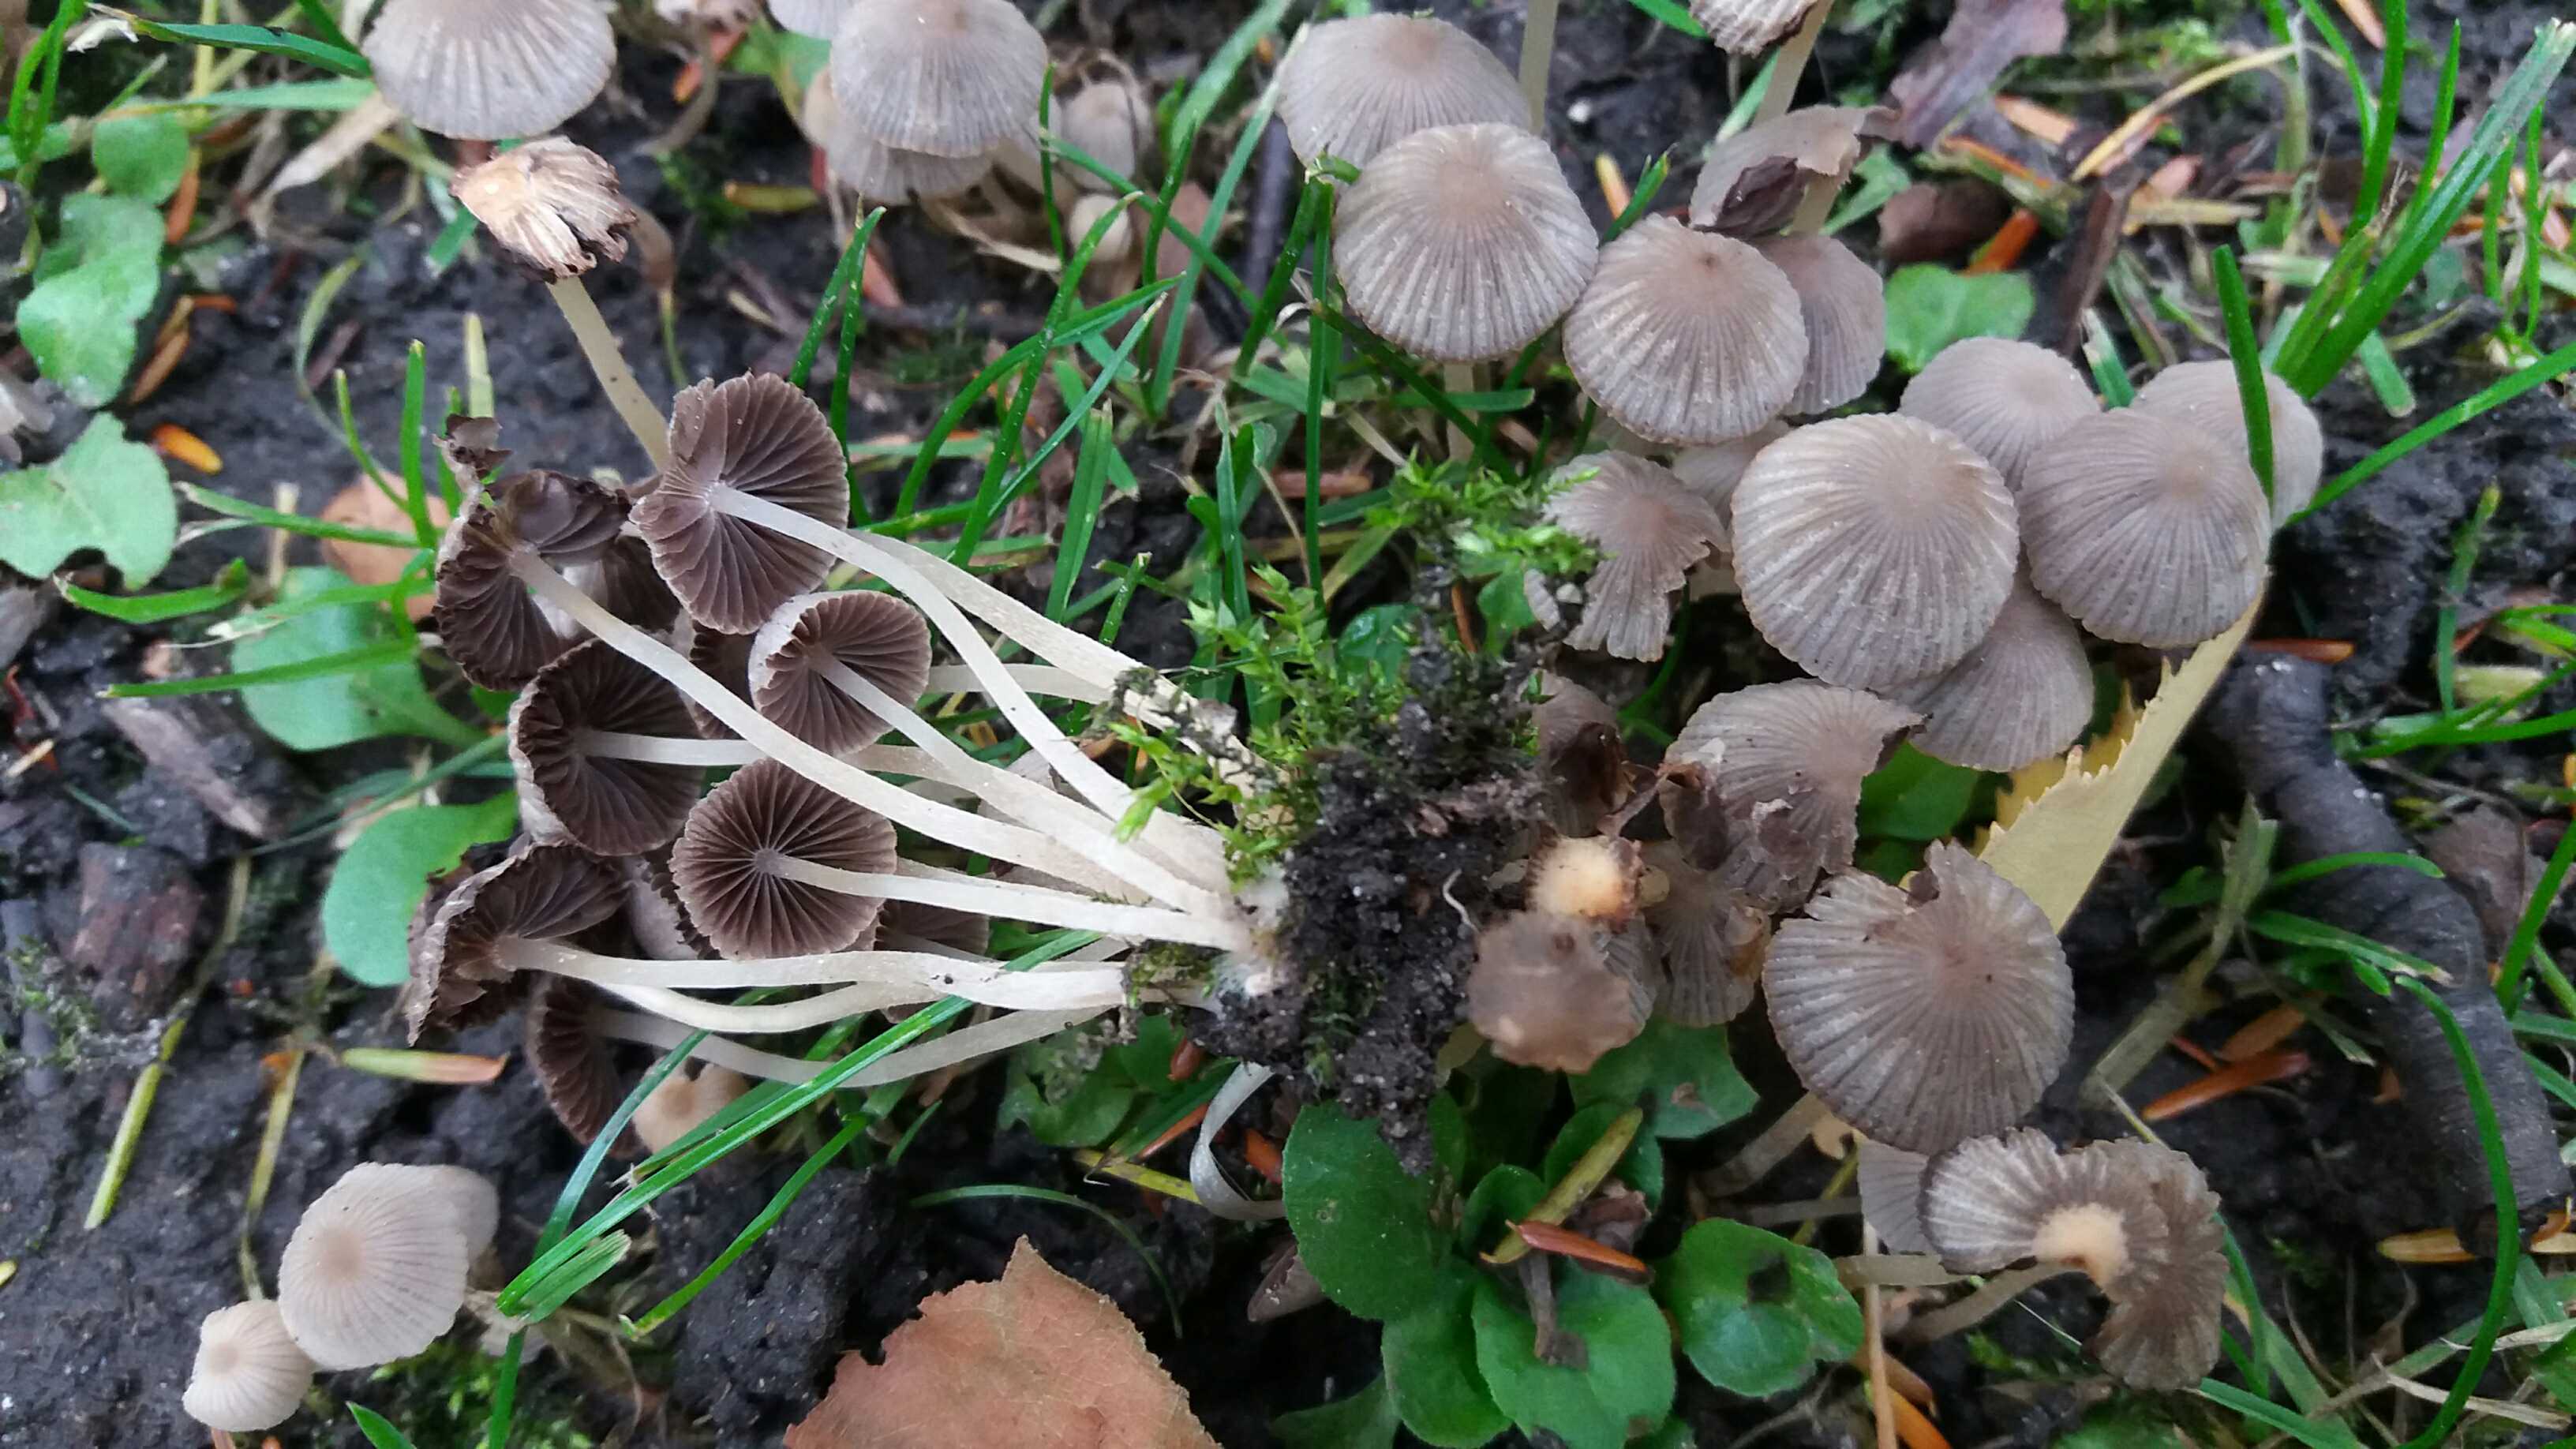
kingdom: Fungi
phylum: Basidiomycota
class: Agaricomycetes
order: Agaricales
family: Psathyrellaceae
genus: Coprinellus
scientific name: Coprinellus disseminatus
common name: bredsået blækhat
